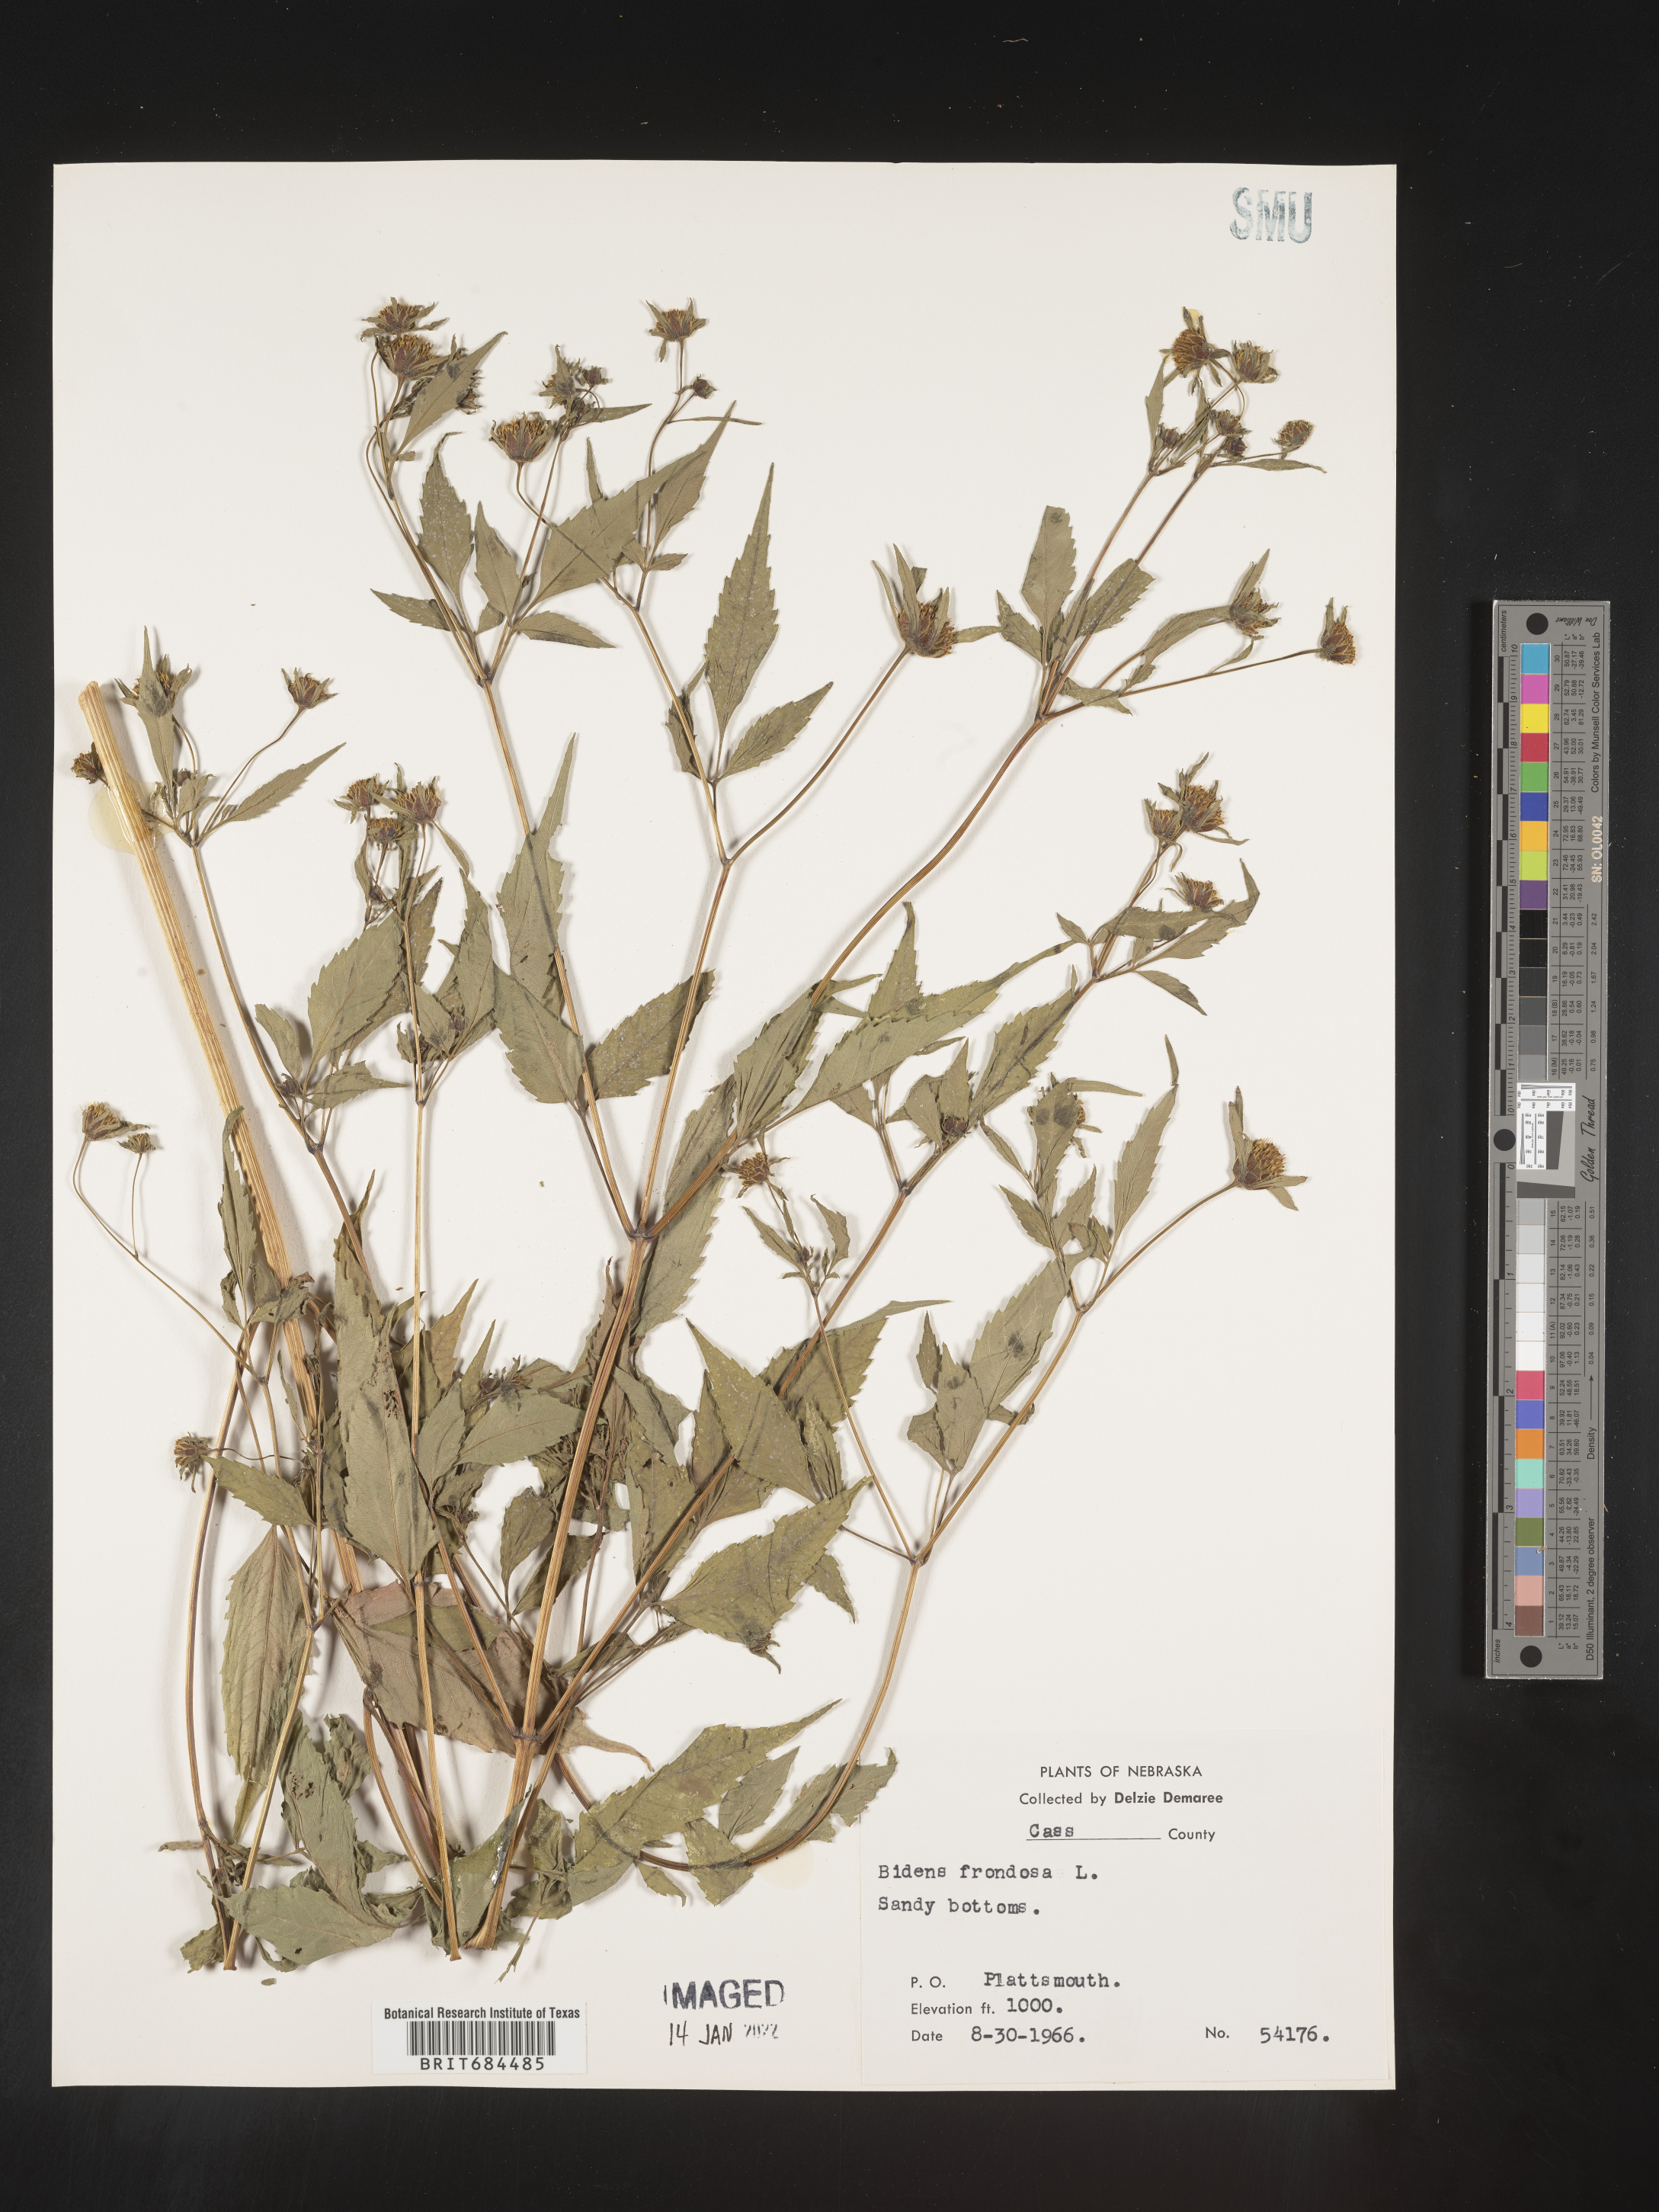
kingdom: Plantae
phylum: Tracheophyta
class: Magnoliopsida
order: Asterales
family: Asteraceae
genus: Bidens
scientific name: Bidens frondosa
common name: Beggarticks
